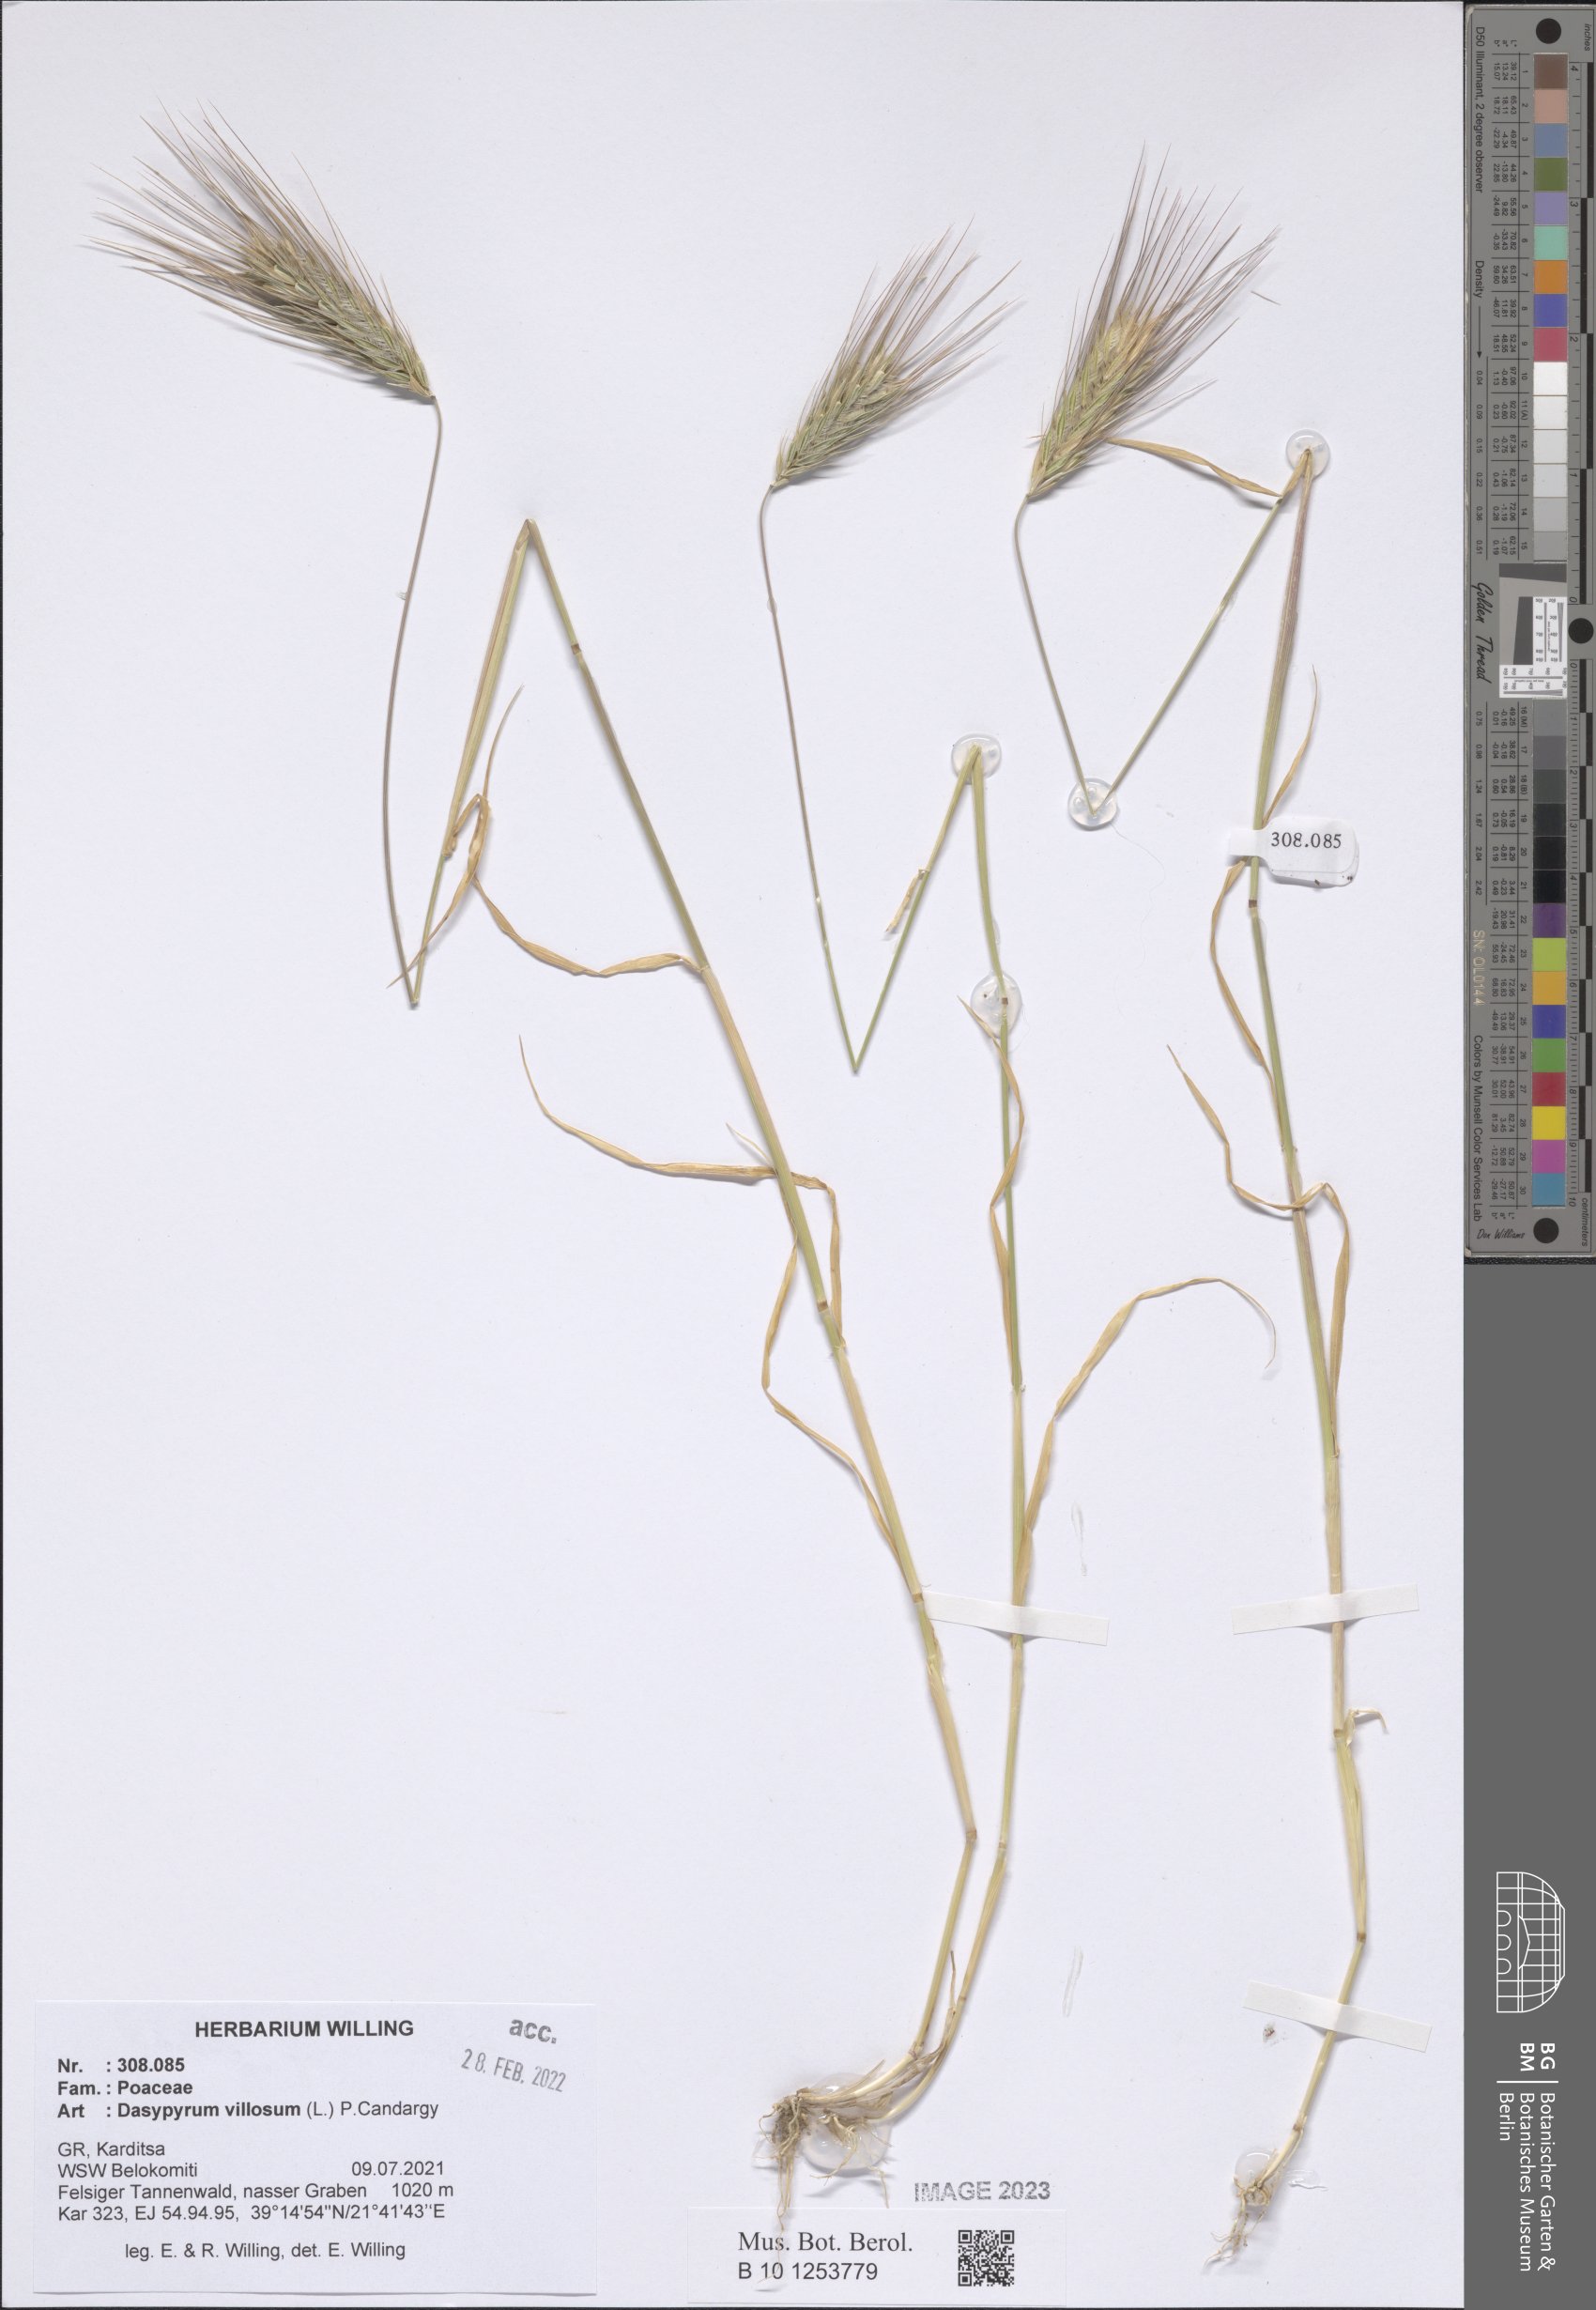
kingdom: Plantae
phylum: Tracheophyta
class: Liliopsida
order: Poales
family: Poaceae
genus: Dasypyrum
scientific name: Dasypyrum villosum
